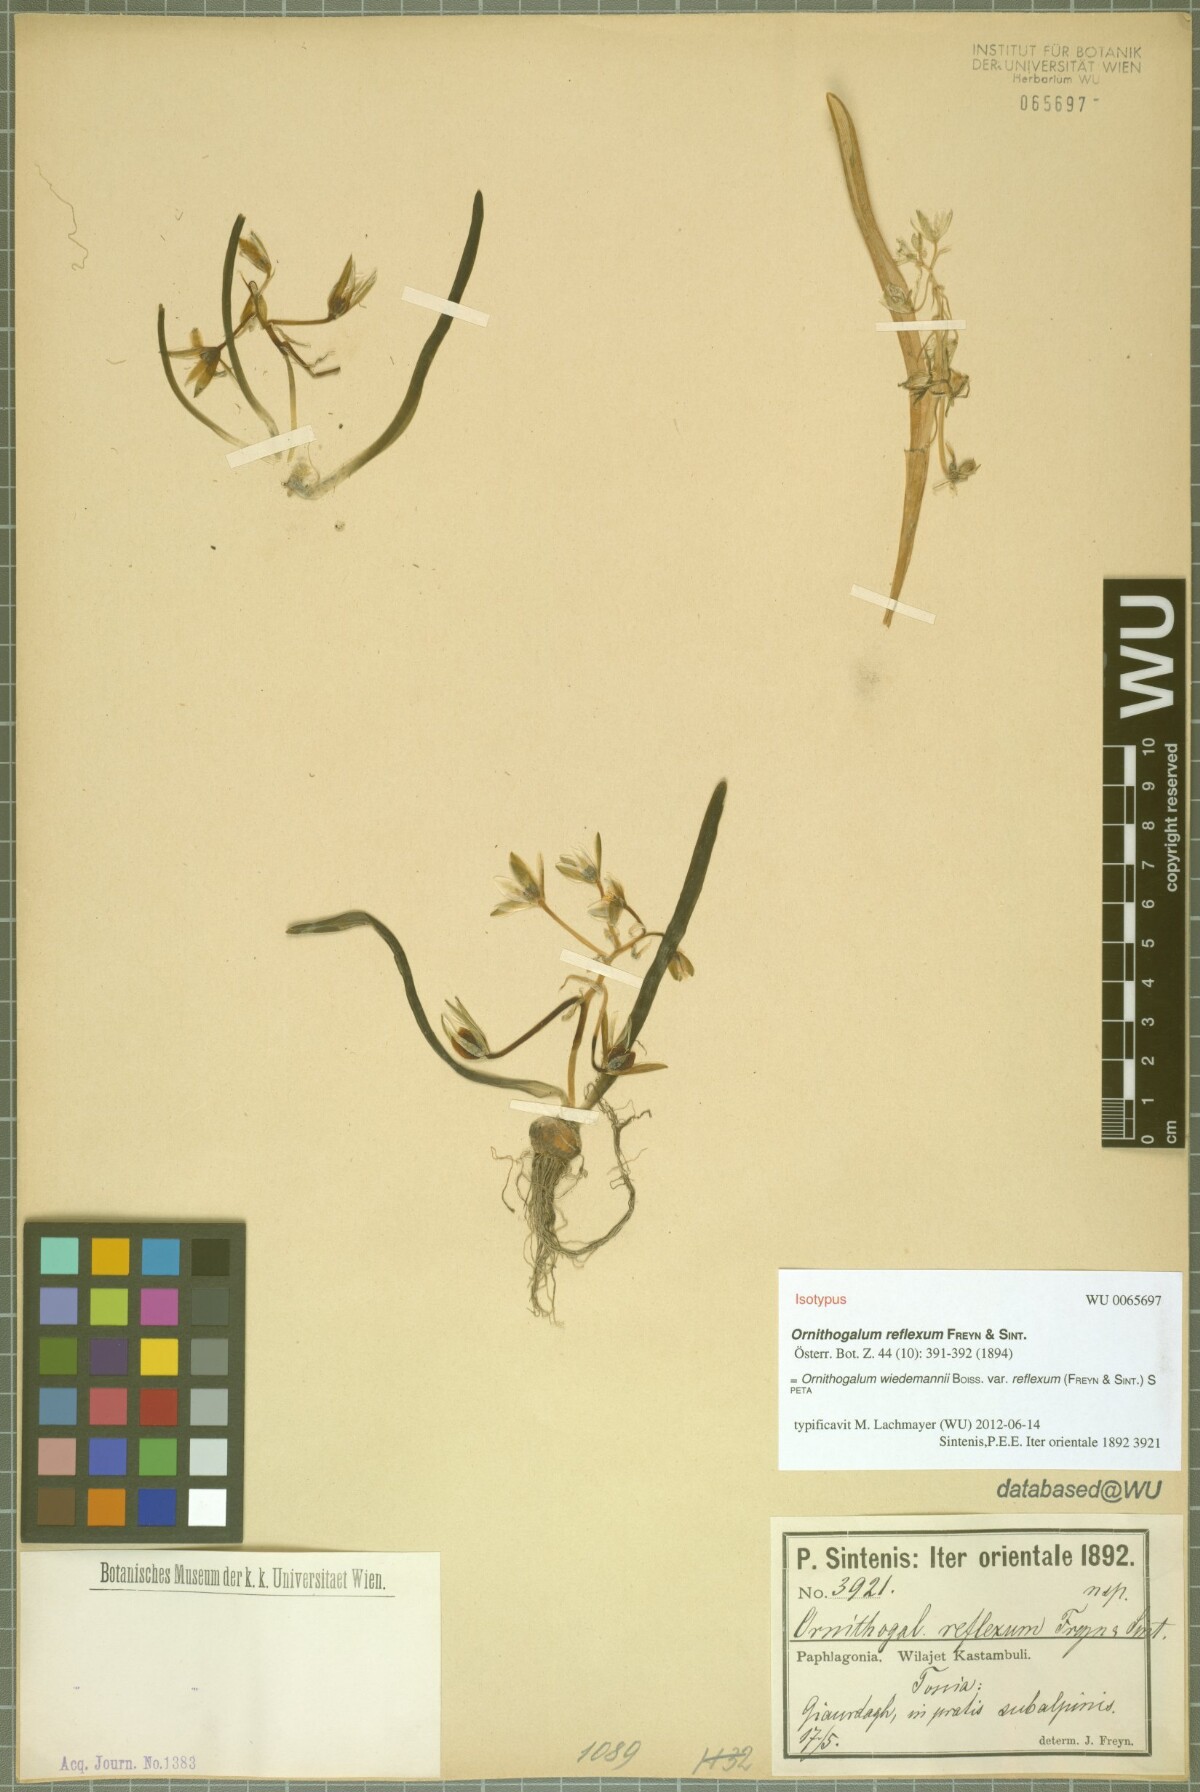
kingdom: Plantae
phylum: Tracheophyta
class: Liliopsida
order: Asparagales
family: Asparagaceae
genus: Ornithogalum
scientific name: Ornithogalum wiedemannii
